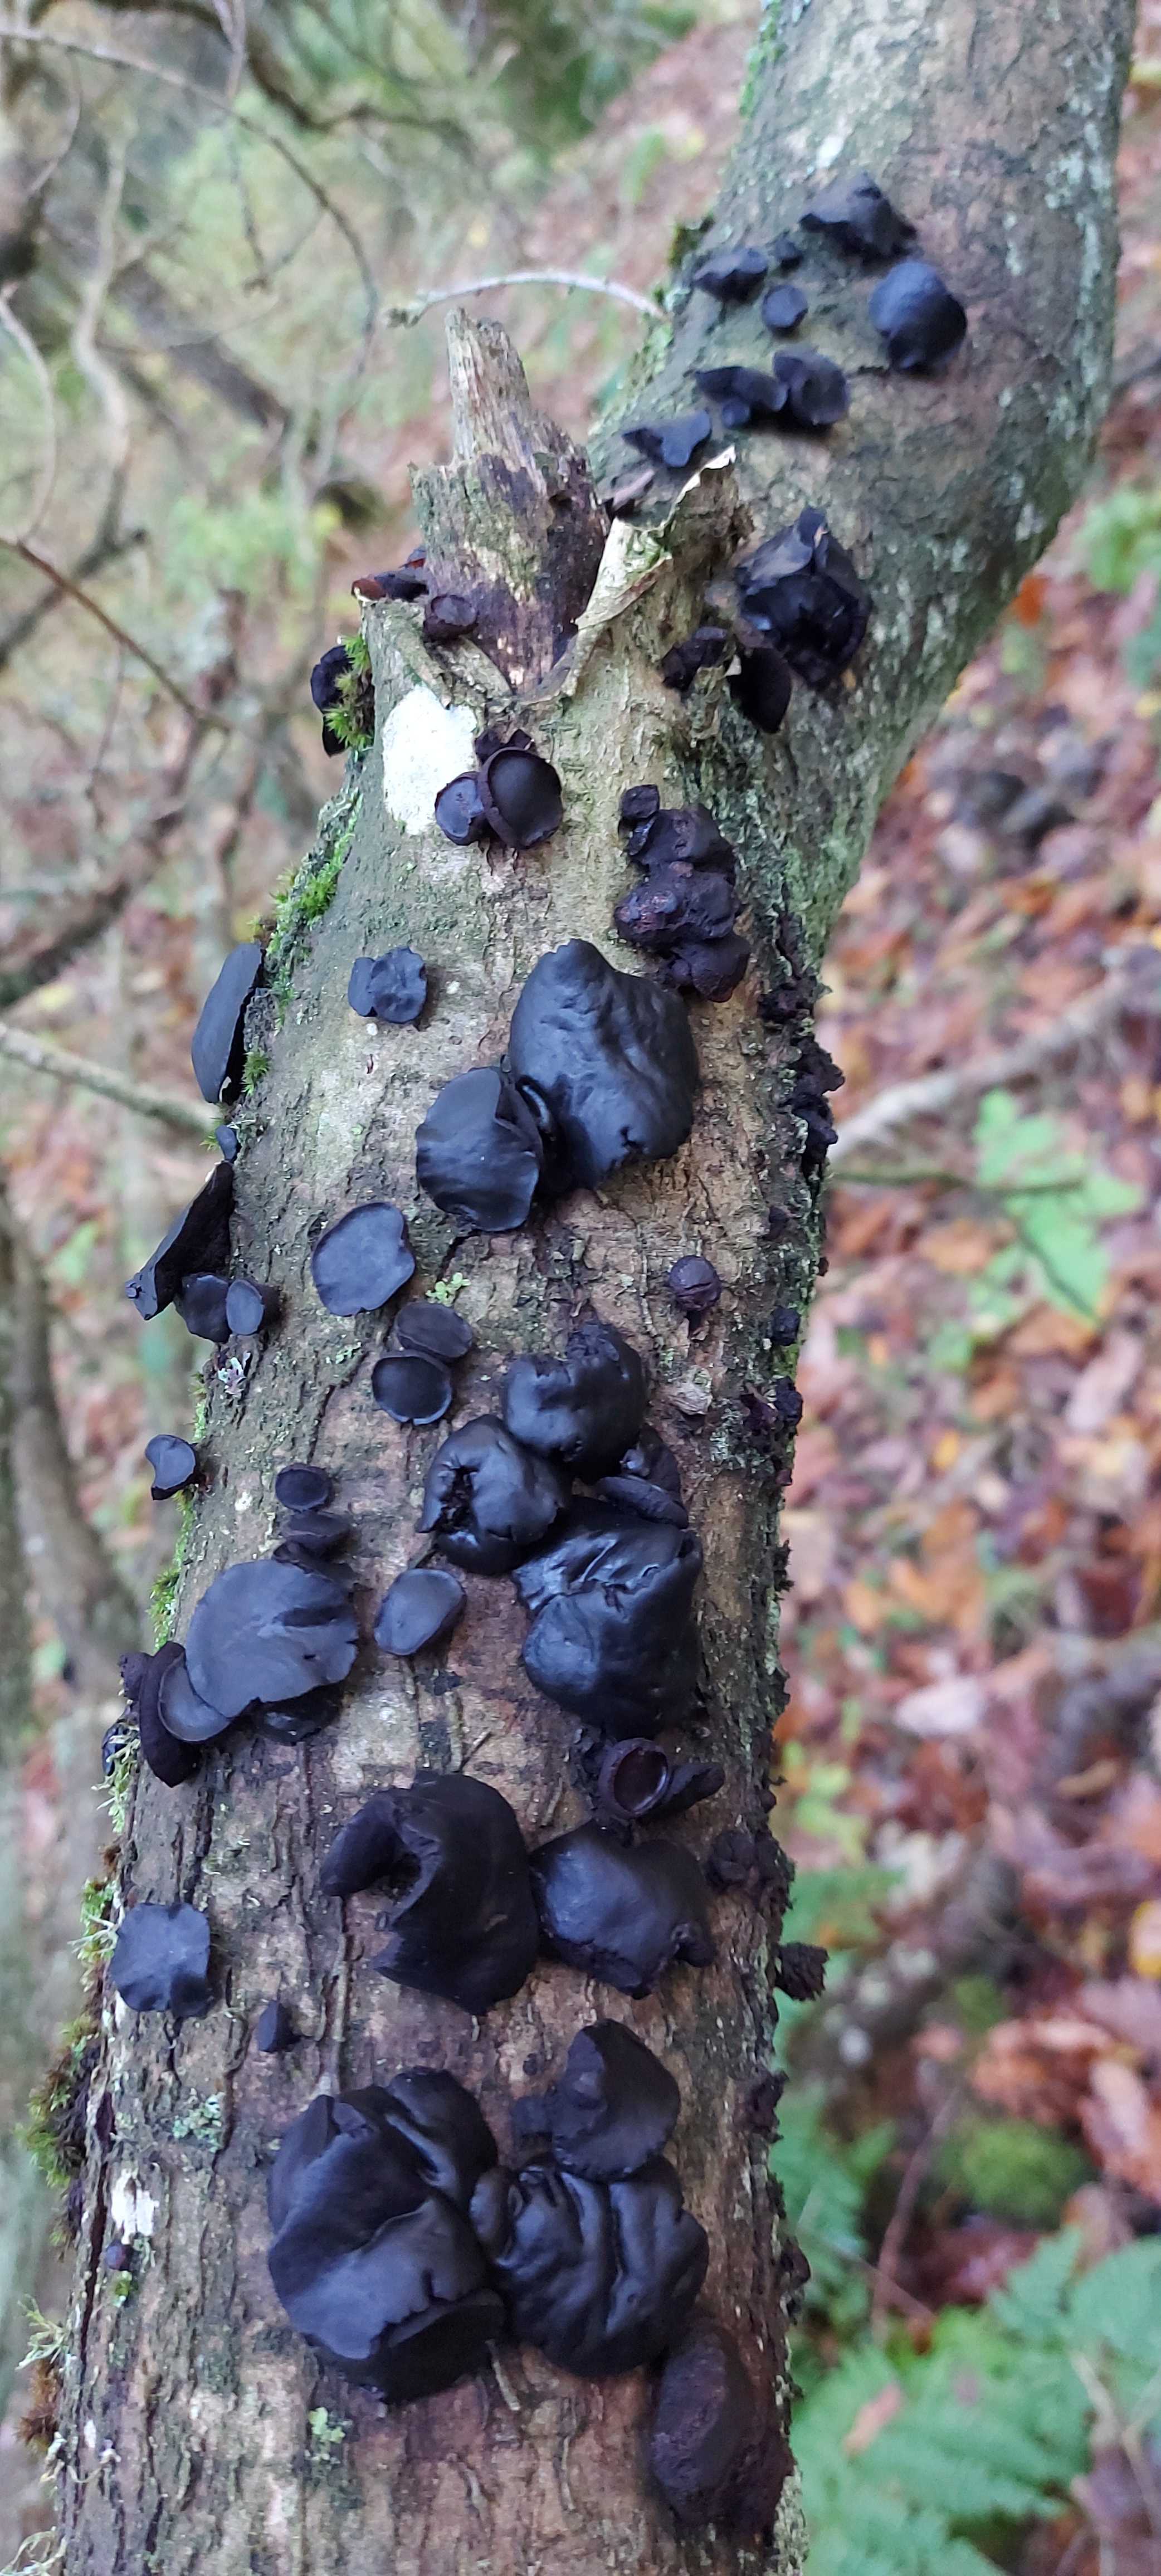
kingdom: Fungi
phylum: Ascomycota
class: Leotiomycetes
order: Phacidiales
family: Phacidiaceae
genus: Bulgaria
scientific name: Bulgaria inquinans
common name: afsmittende topsvamp
